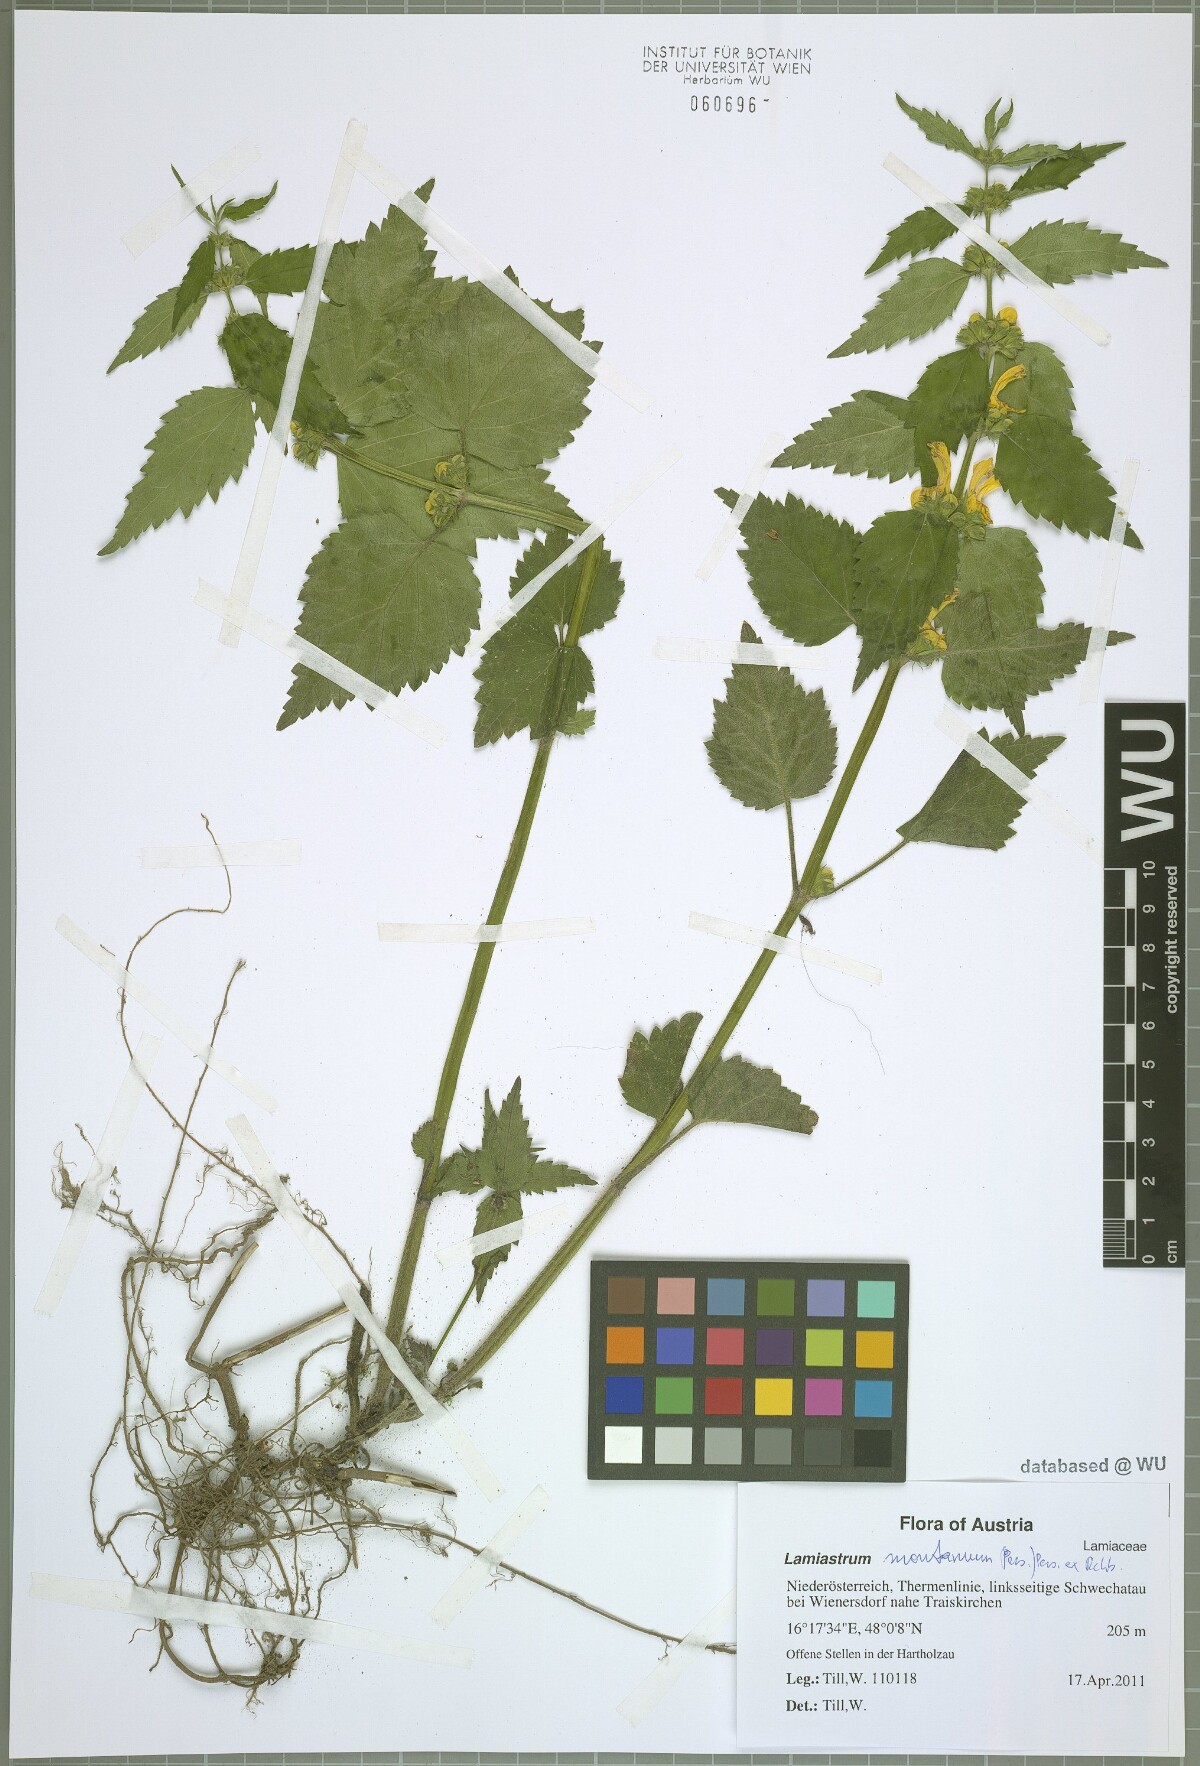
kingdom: Plantae
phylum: Tracheophyta
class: Magnoliopsida
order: Lamiales
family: Lamiaceae
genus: Lamium
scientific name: Lamium galeobdolon
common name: Yellow archangel
